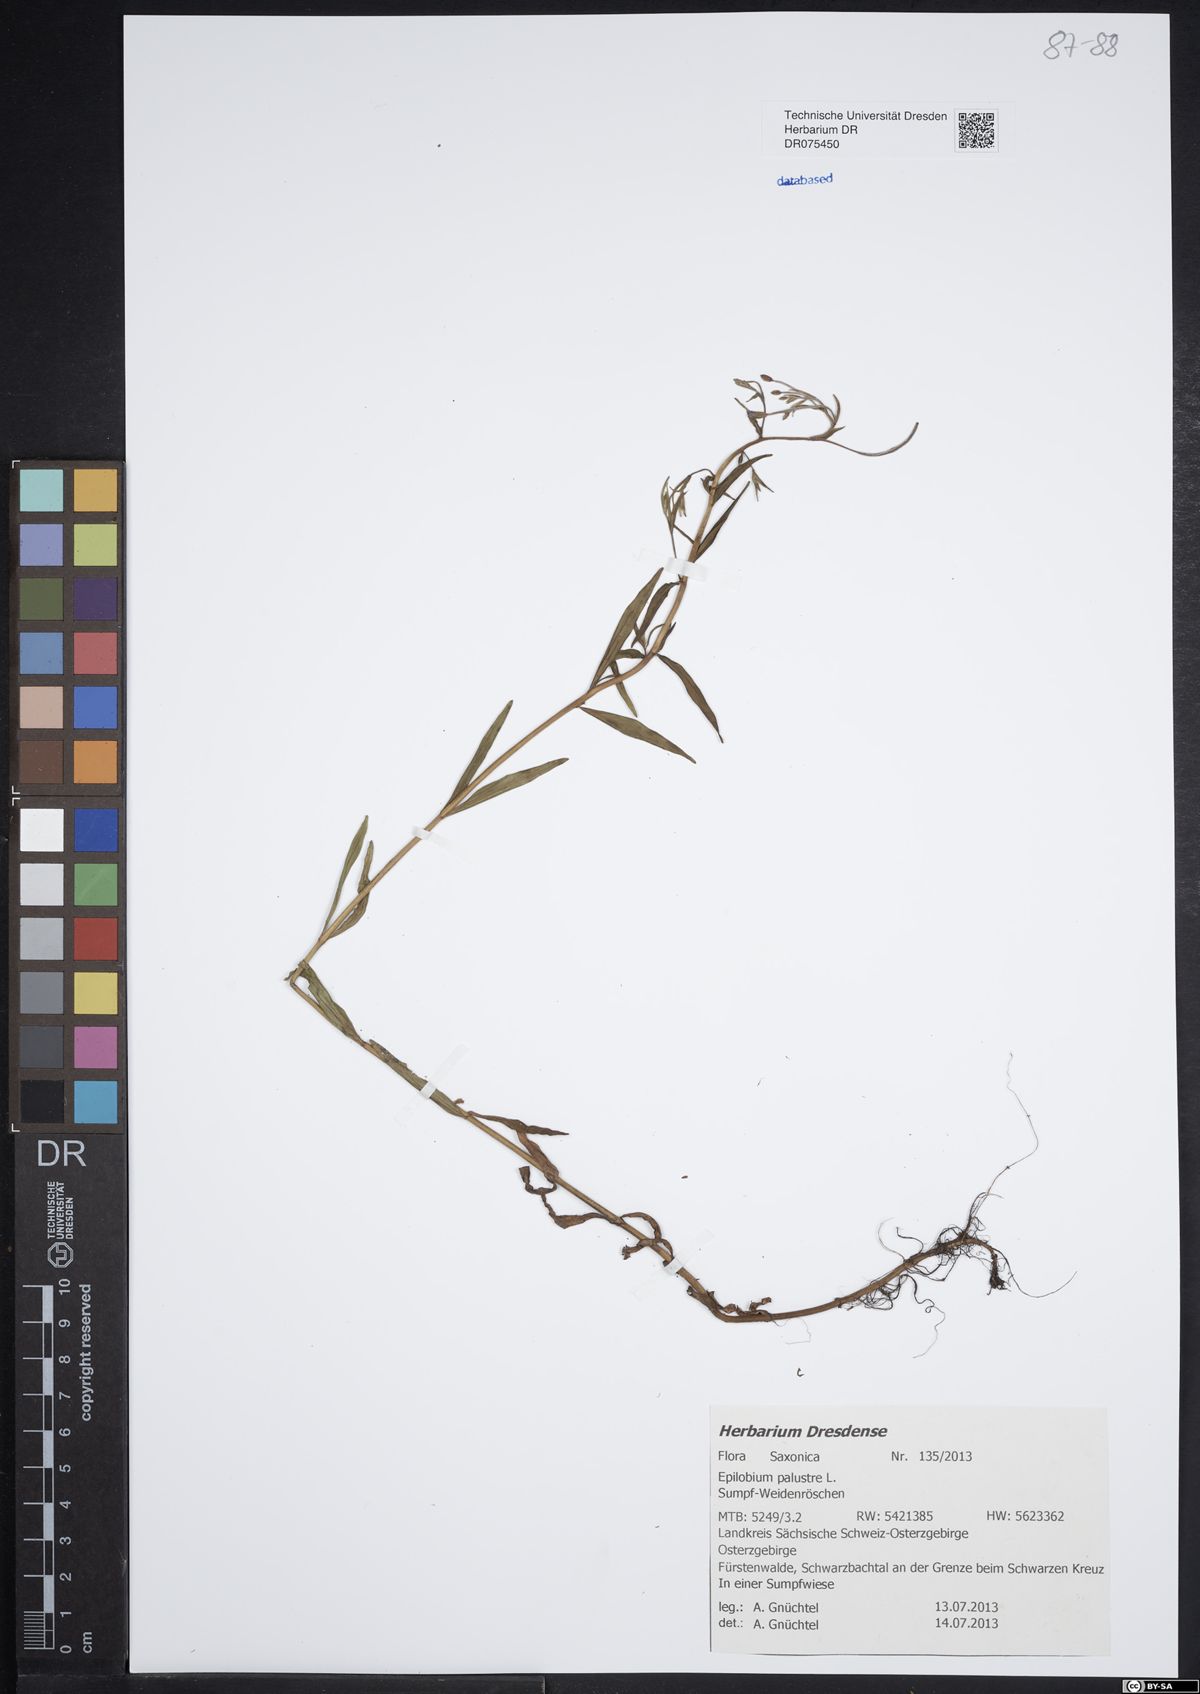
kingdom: Plantae
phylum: Tracheophyta
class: Magnoliopsida
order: Myrtales
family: Onagraceae
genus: Epilobium
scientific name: Epilobium palustre
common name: Marsh willowherb
